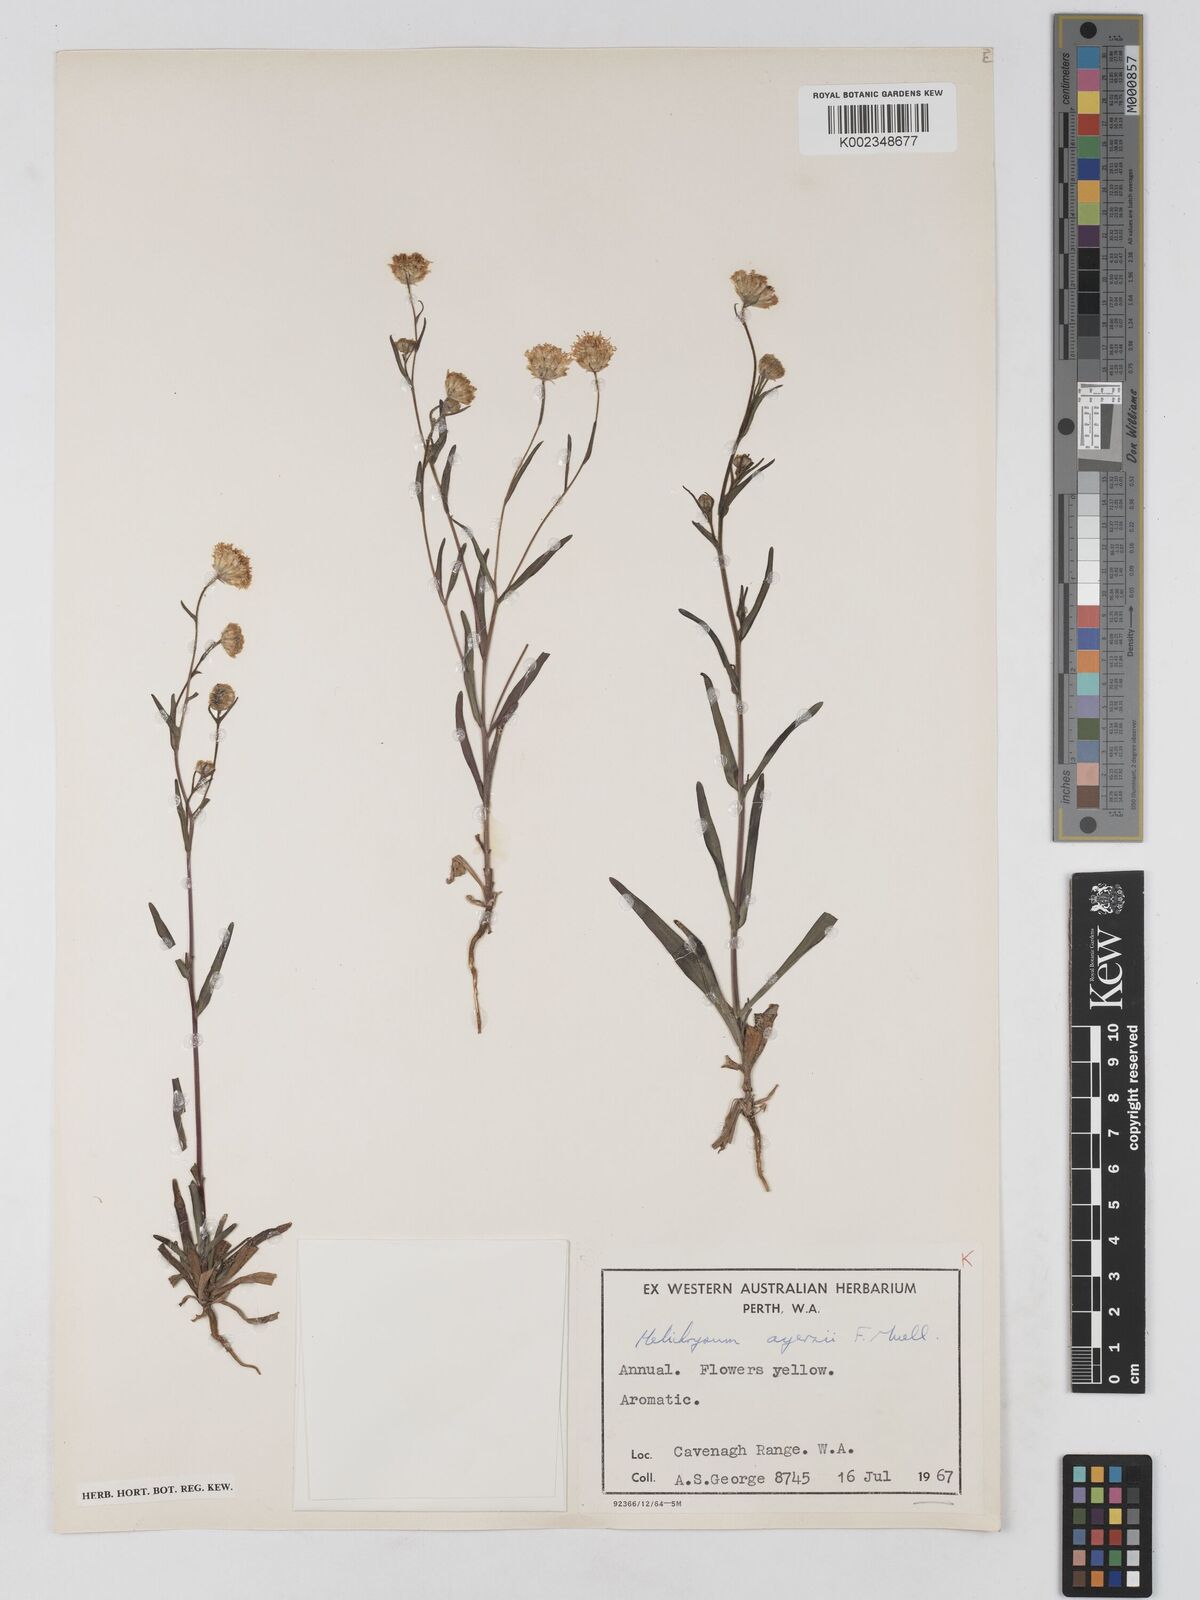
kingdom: Plantae
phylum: Tracheophyta
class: Magnoliopsida
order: Asterales
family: Asteraceae
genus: Schoenia
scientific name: Schoenia ayersii
